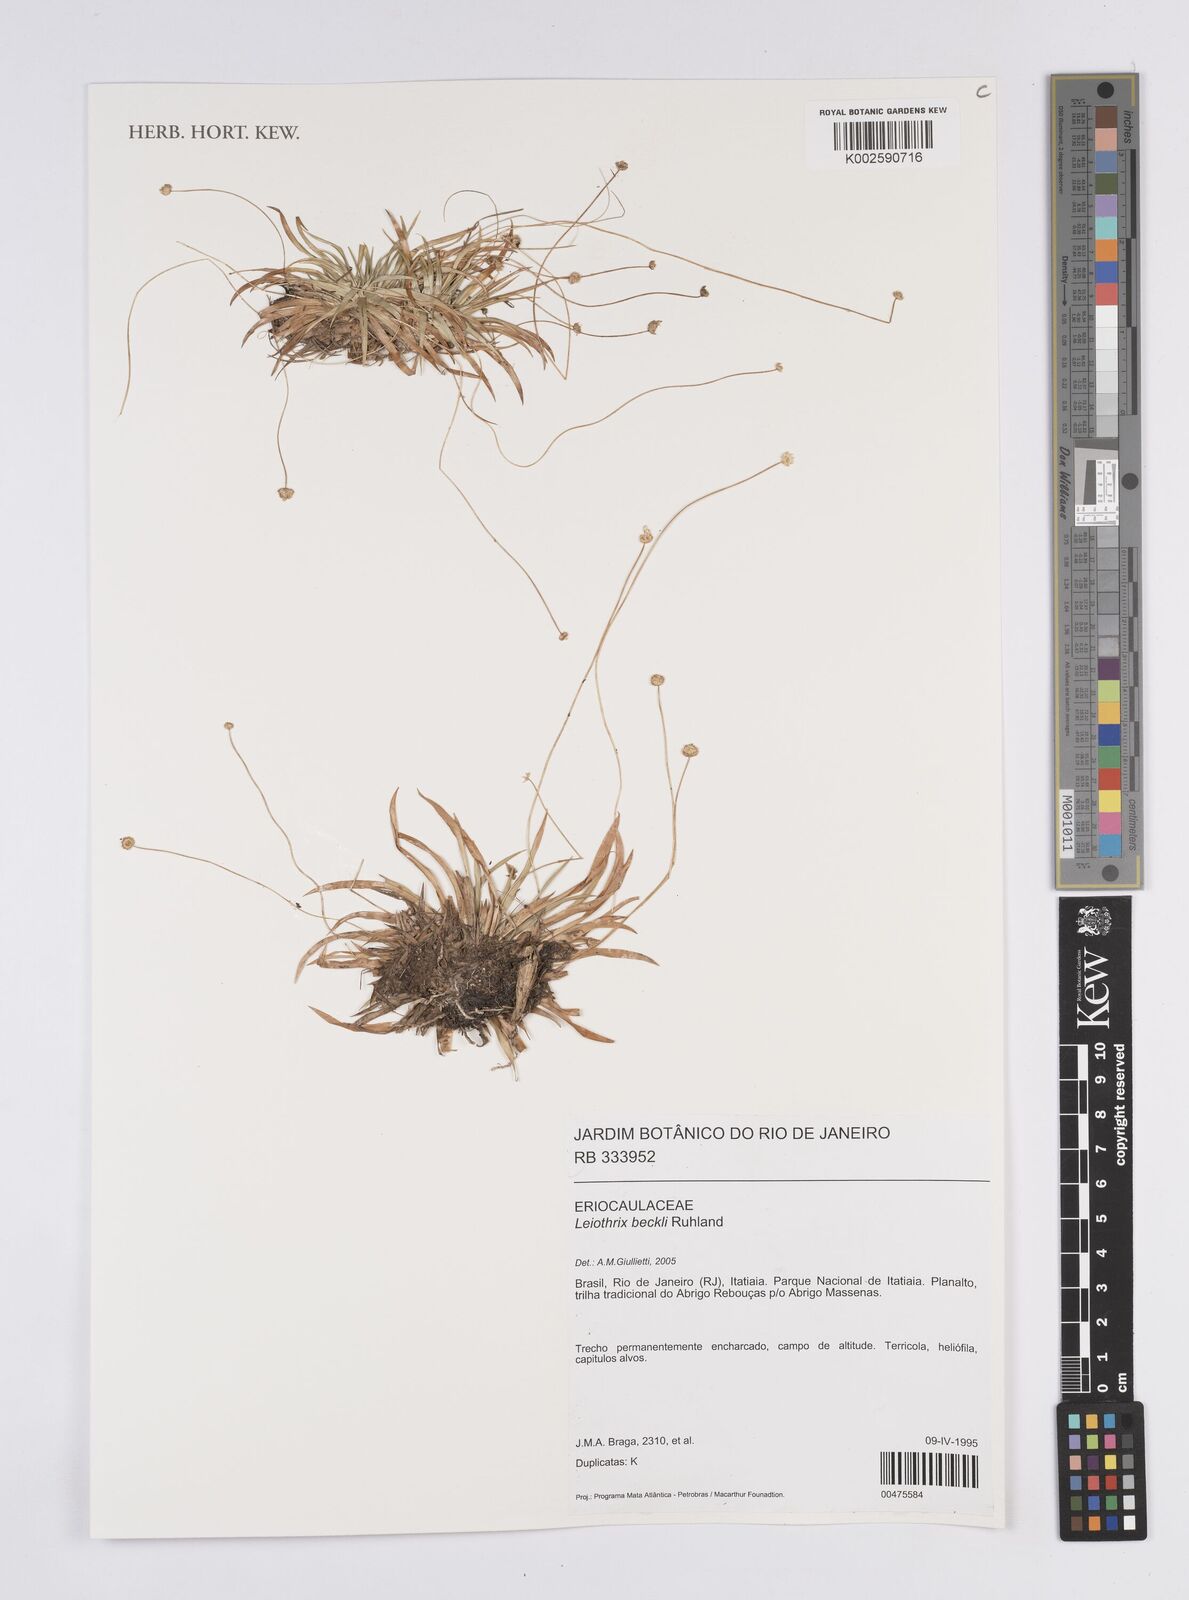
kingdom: Plantae
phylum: Tracheophyta
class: Liliopsida
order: Poales
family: Eriocaulaceae
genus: Leiothrix
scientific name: Leiothrix beckii
